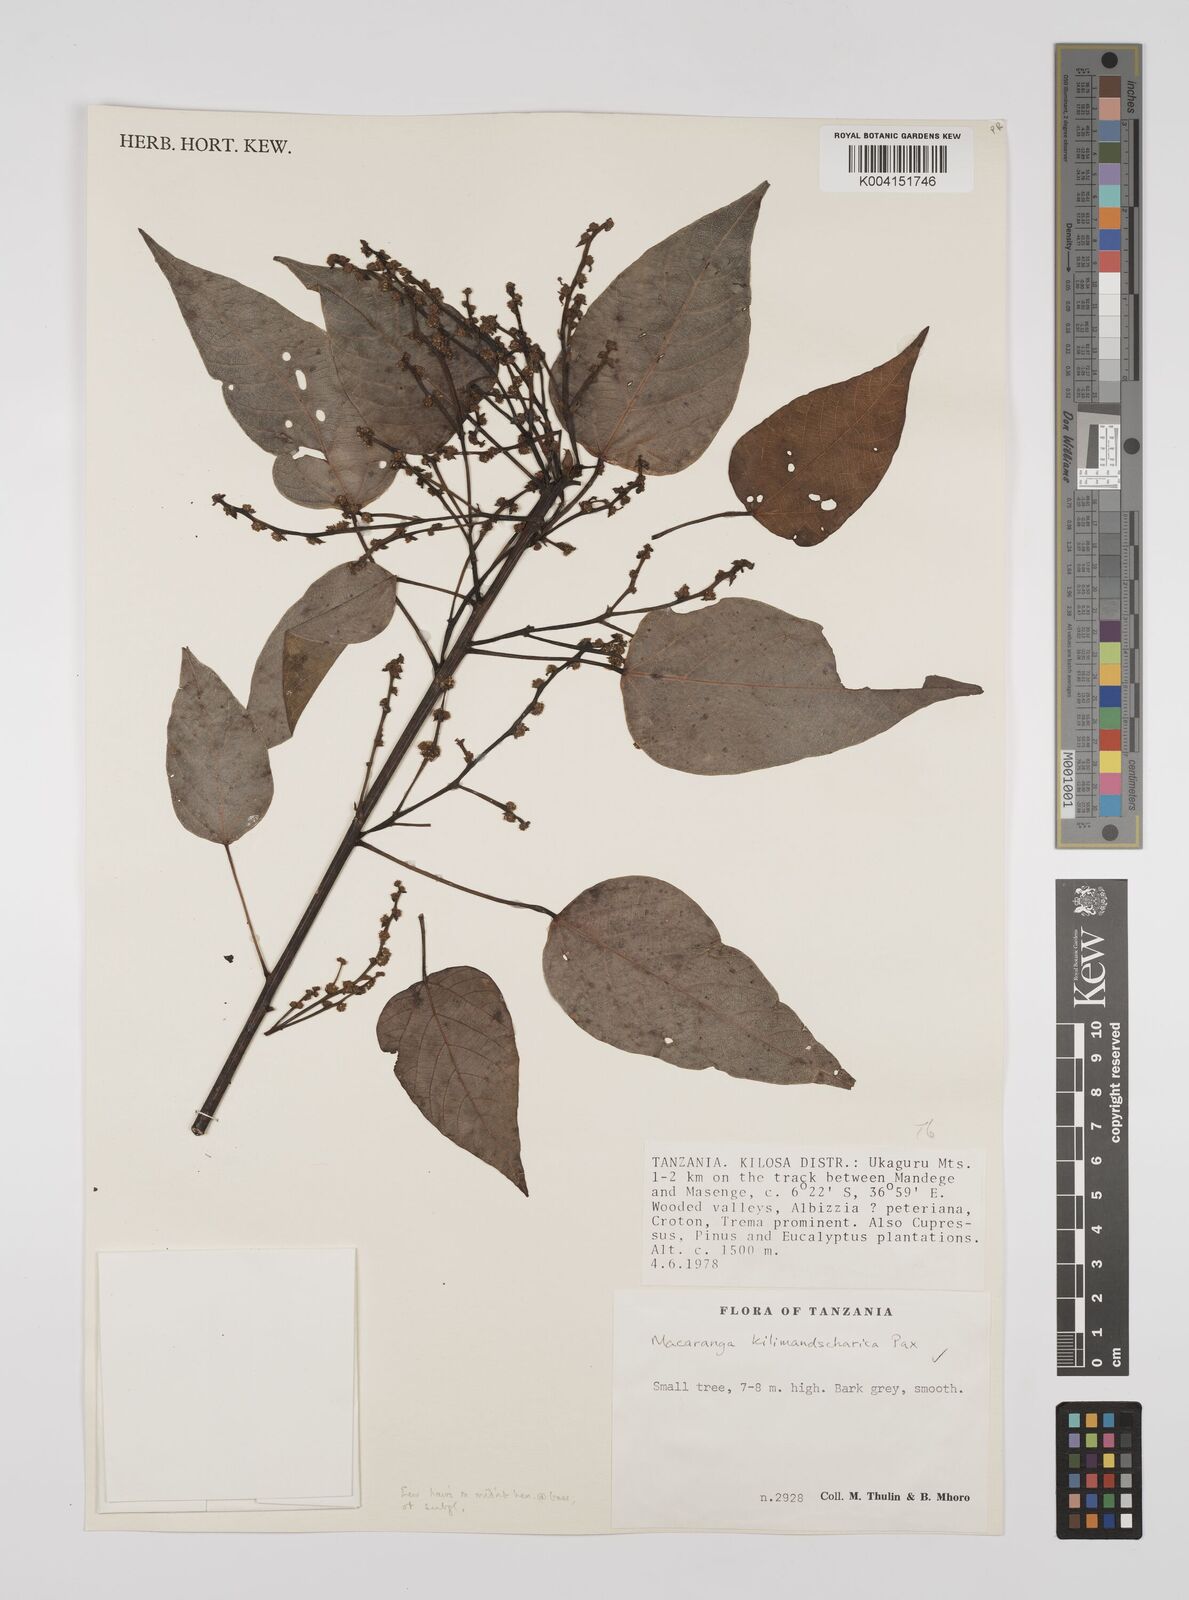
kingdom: Plantae
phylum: Tracheophyta
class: Magnoliopsida
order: Malpighiales
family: Euphorbiaceae
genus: Macaranga
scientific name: Macaranga kilimandscharica
